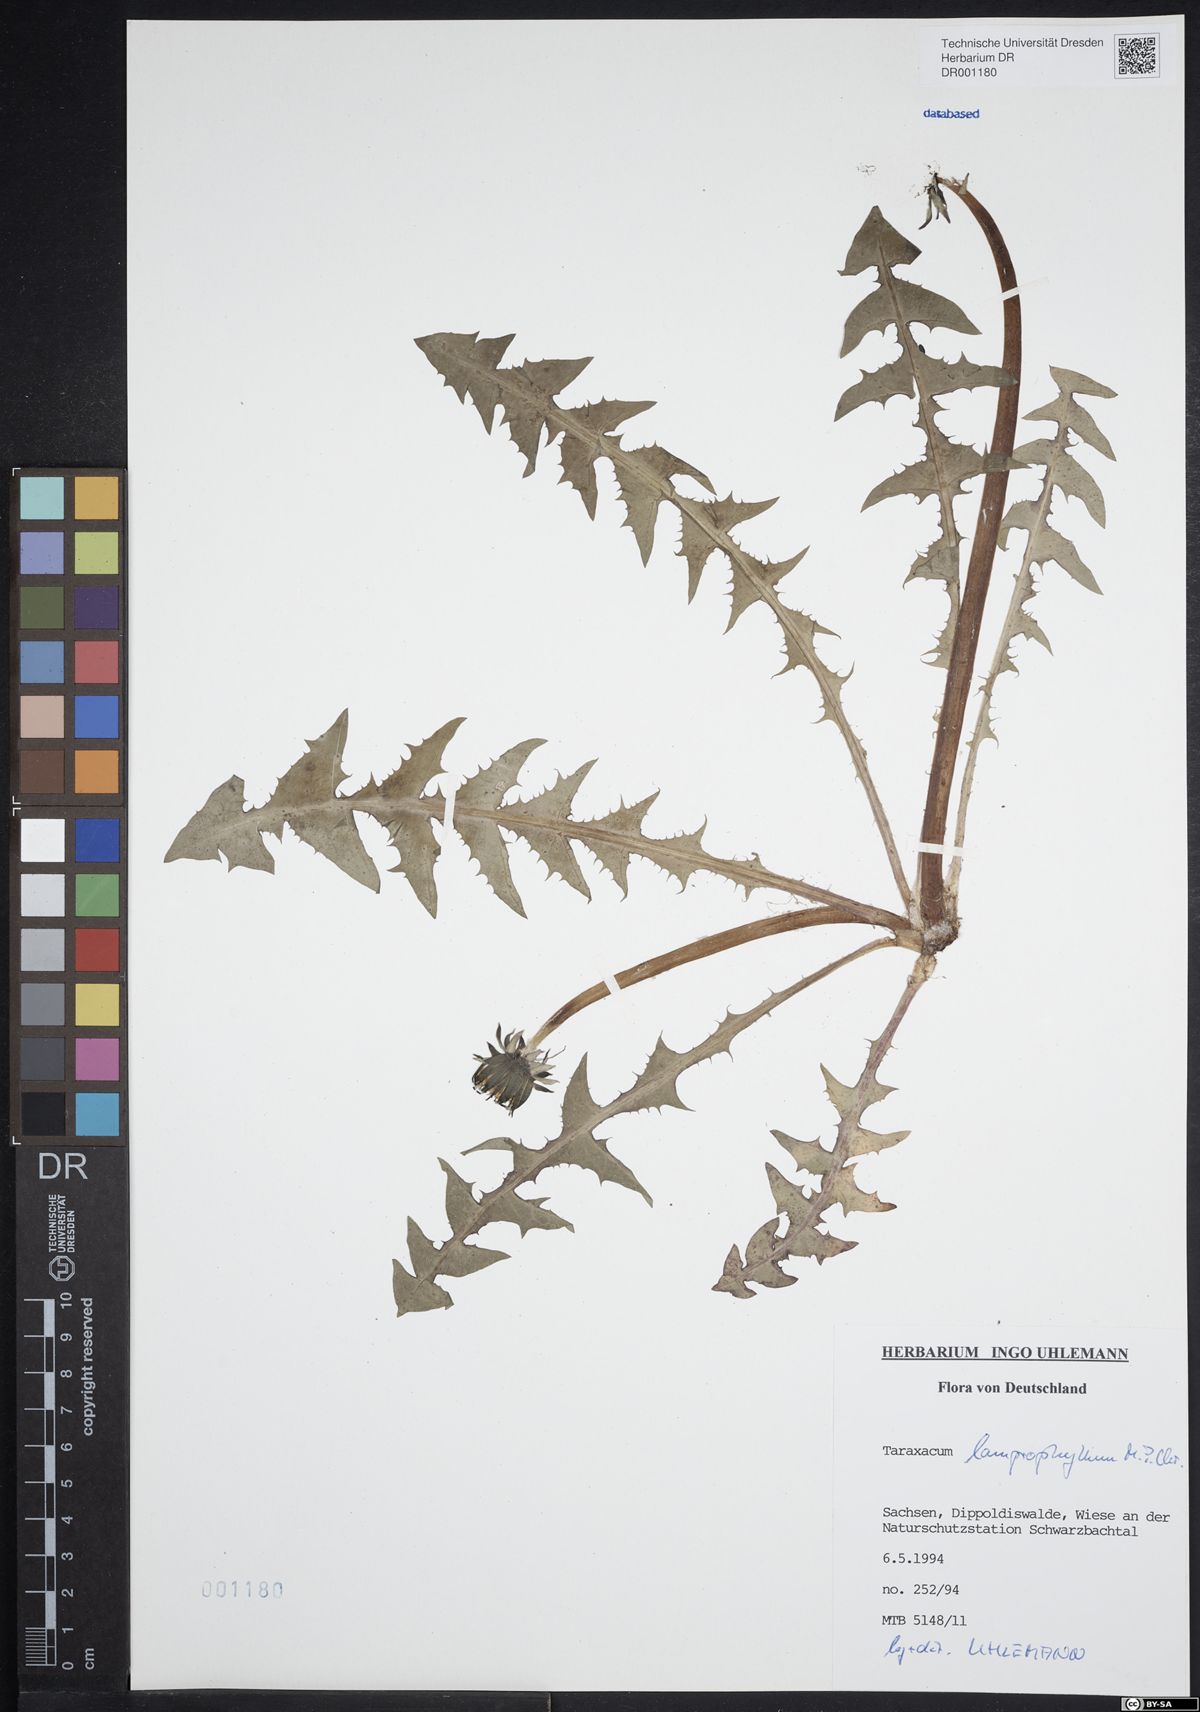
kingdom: Plantae
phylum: Tracheophyta
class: Magnoliopsida
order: Asterales
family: Asteraceae
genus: Taraxacum
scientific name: Taraxacum lamprophyllum
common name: Lustrous-leaved dandelion
